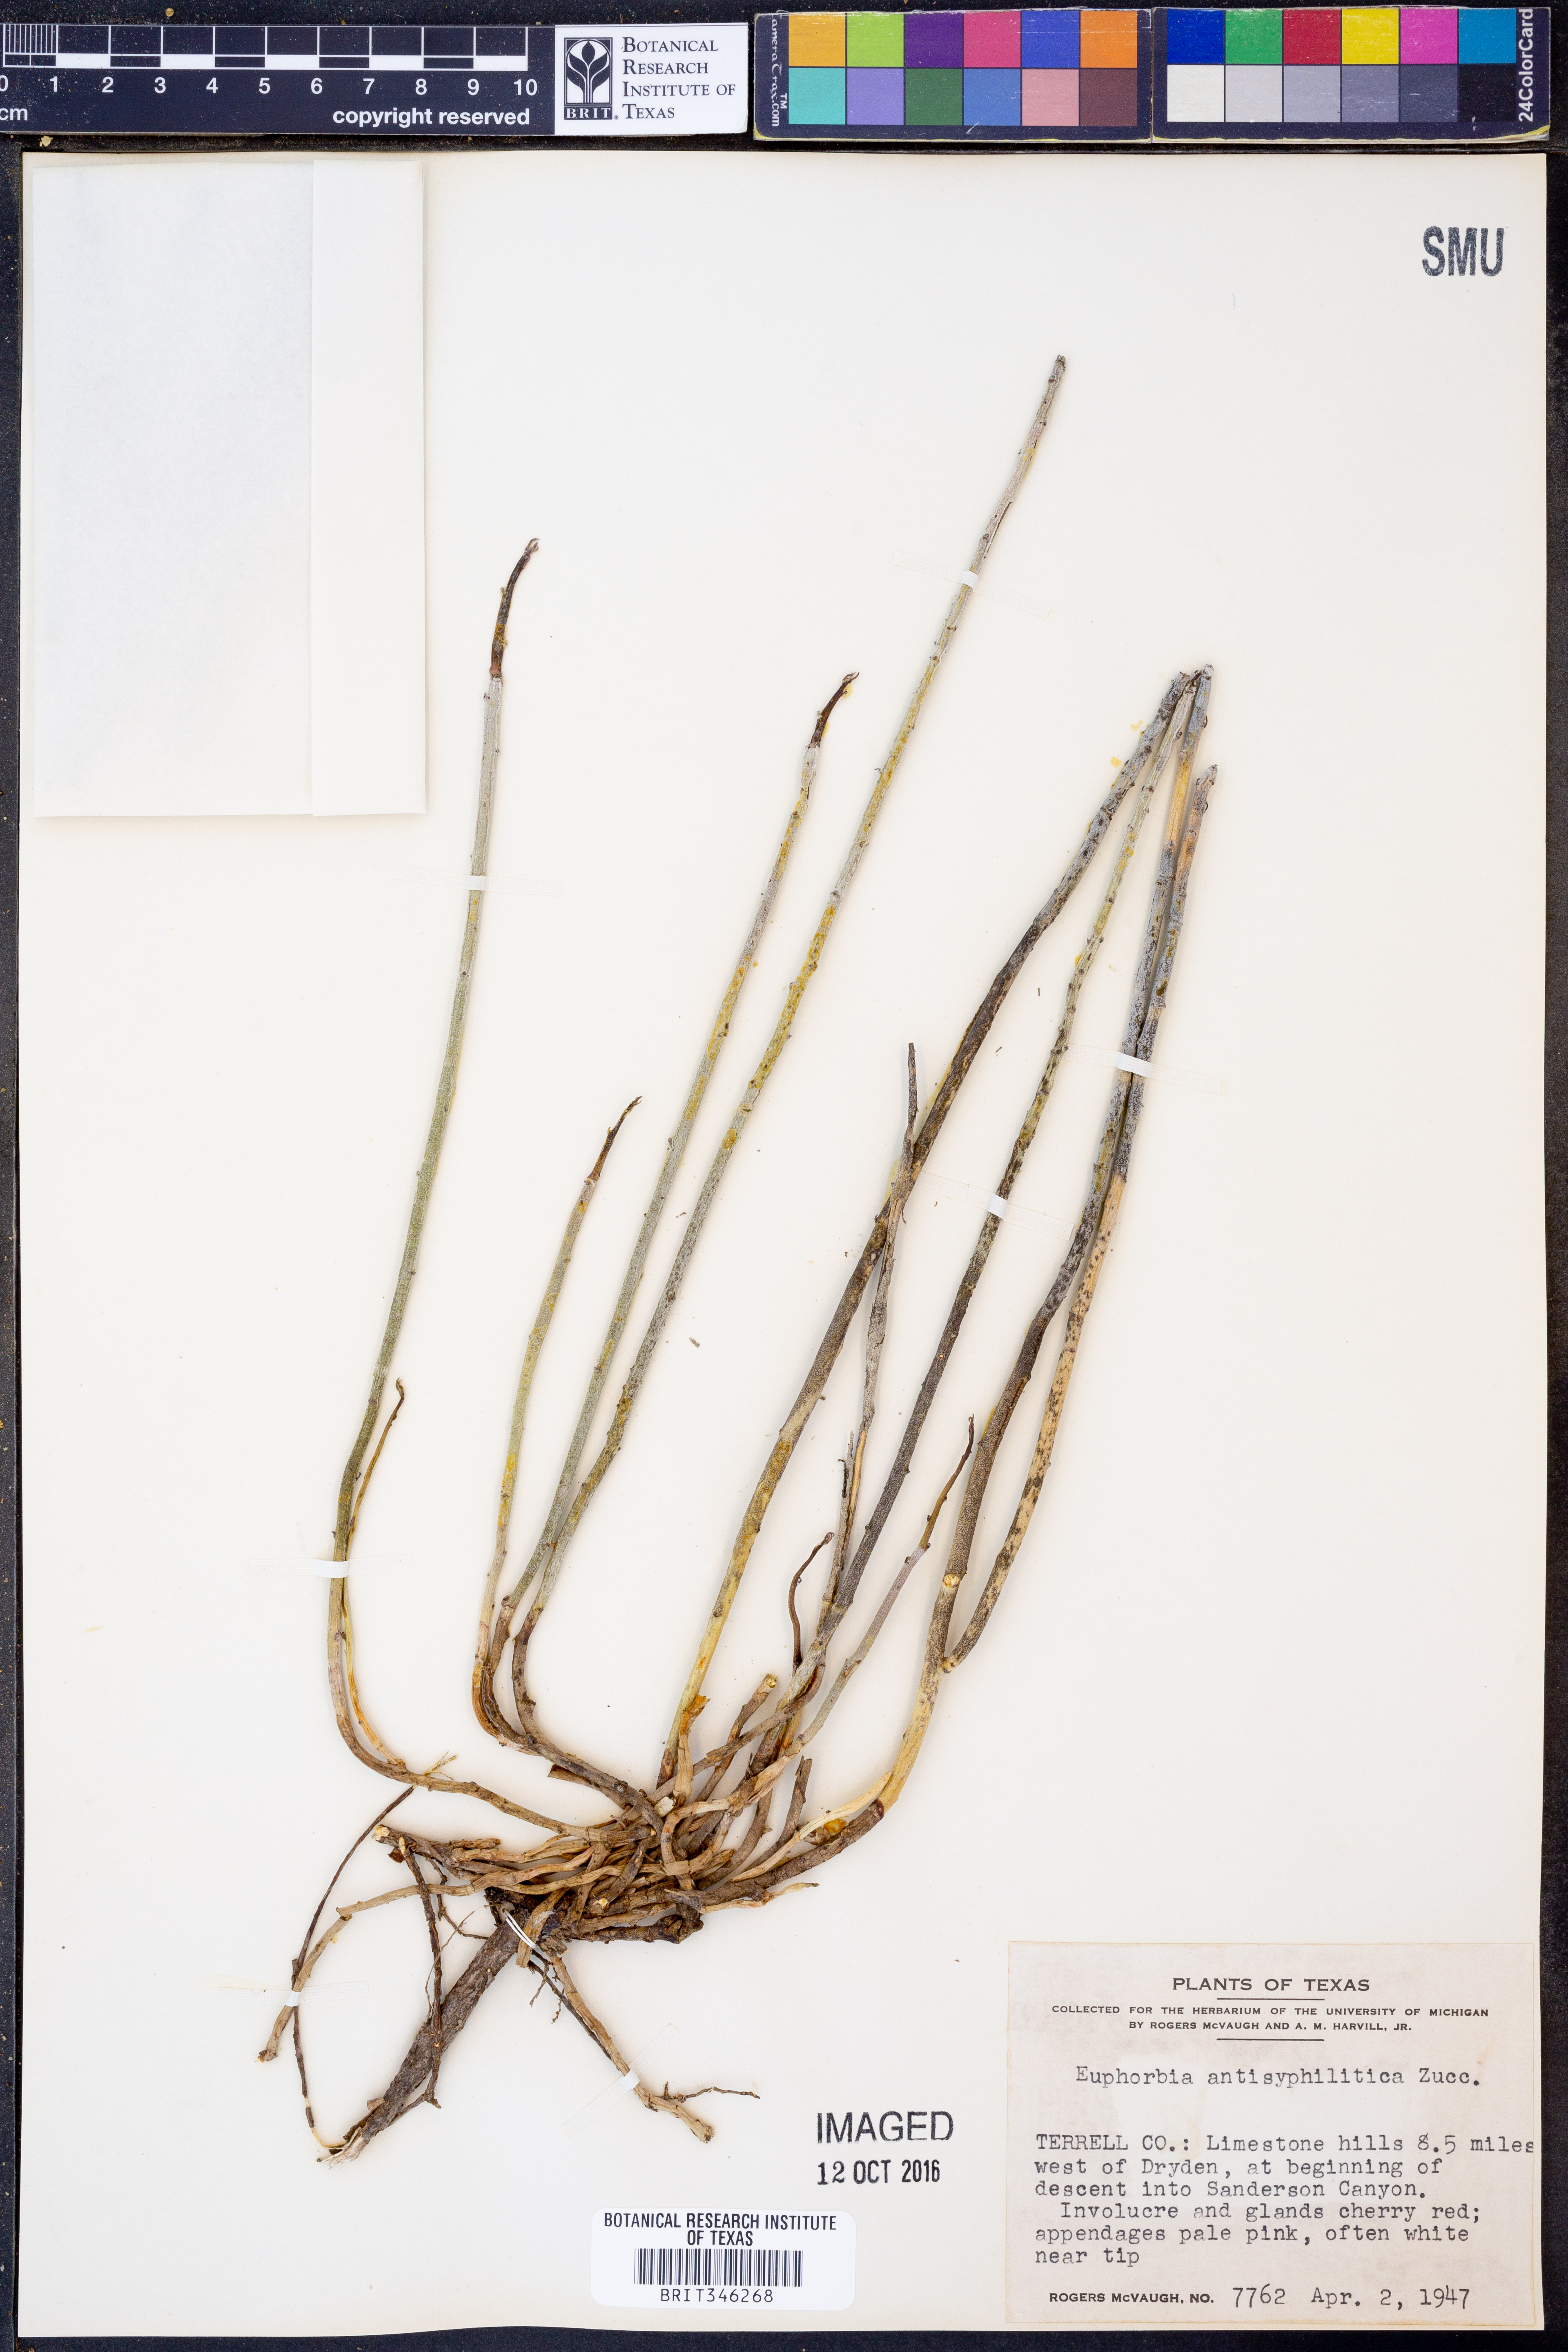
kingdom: Plantae
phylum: Tracheophyta
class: Magnoliopsida
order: Malpighiales
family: Euphorbiaceae
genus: Euphorbia
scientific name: Euphorbia antisyphilitica
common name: Candelilla
